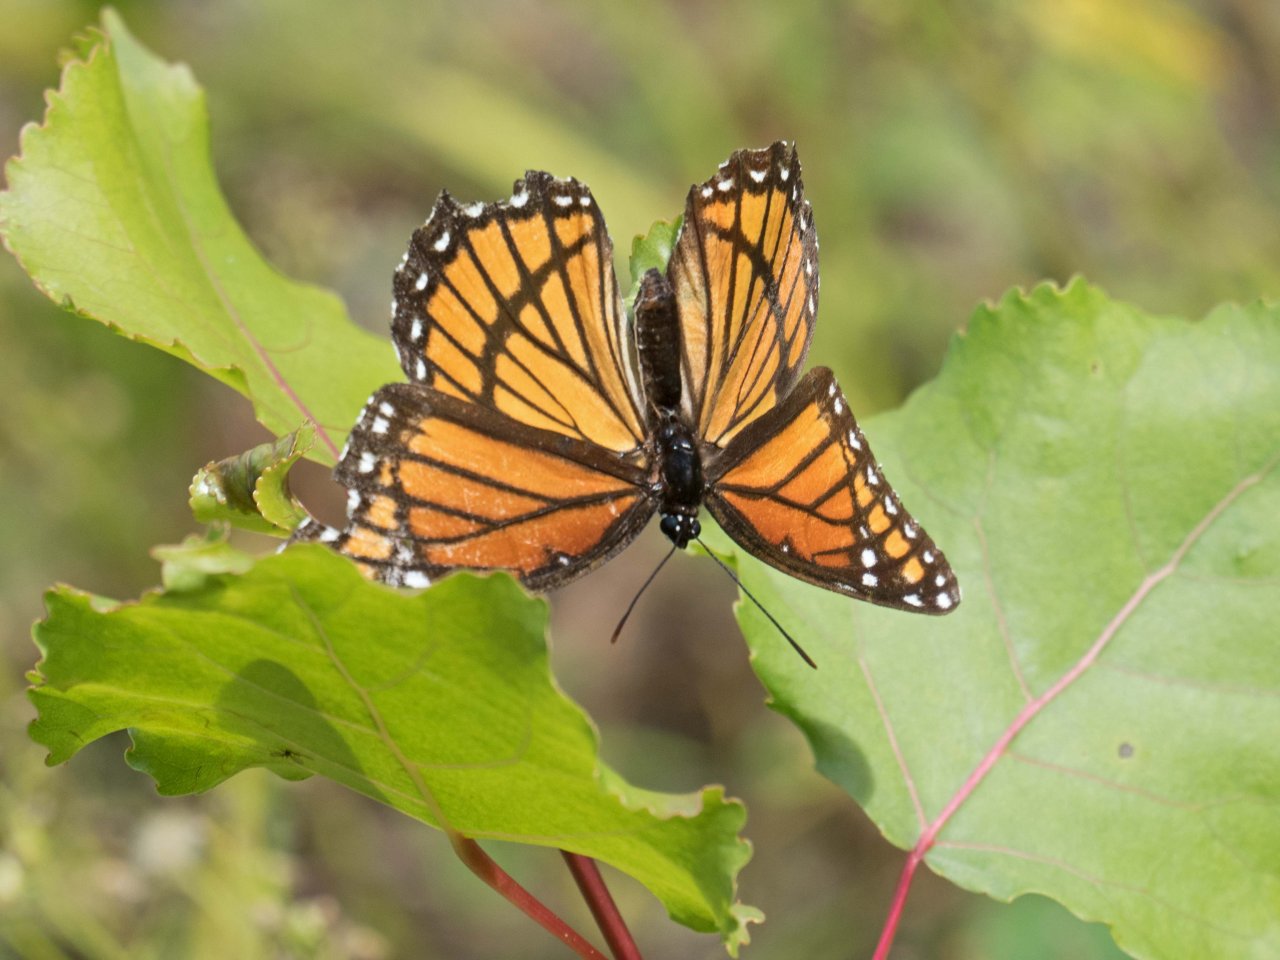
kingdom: Animalia
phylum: Arthropoda
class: Insecta
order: Lepidoptera
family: Nymphalidae
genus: Limenitis
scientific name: Limenitis archippus
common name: Viceroy
